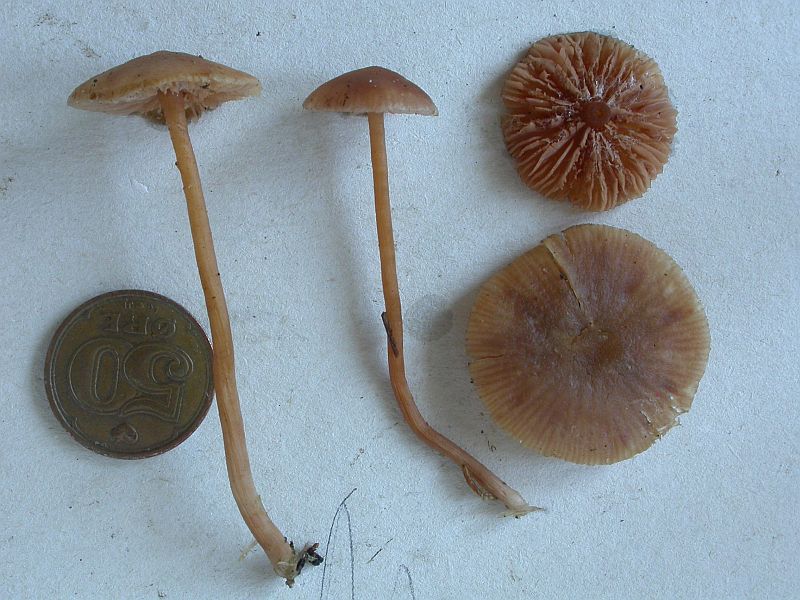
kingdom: Fungi
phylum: Basidiomycota
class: Agaricomycetes
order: Agaricales
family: Hydnangiaceae
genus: Laccaria
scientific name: Laccaria laccata
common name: rød ametysthat
